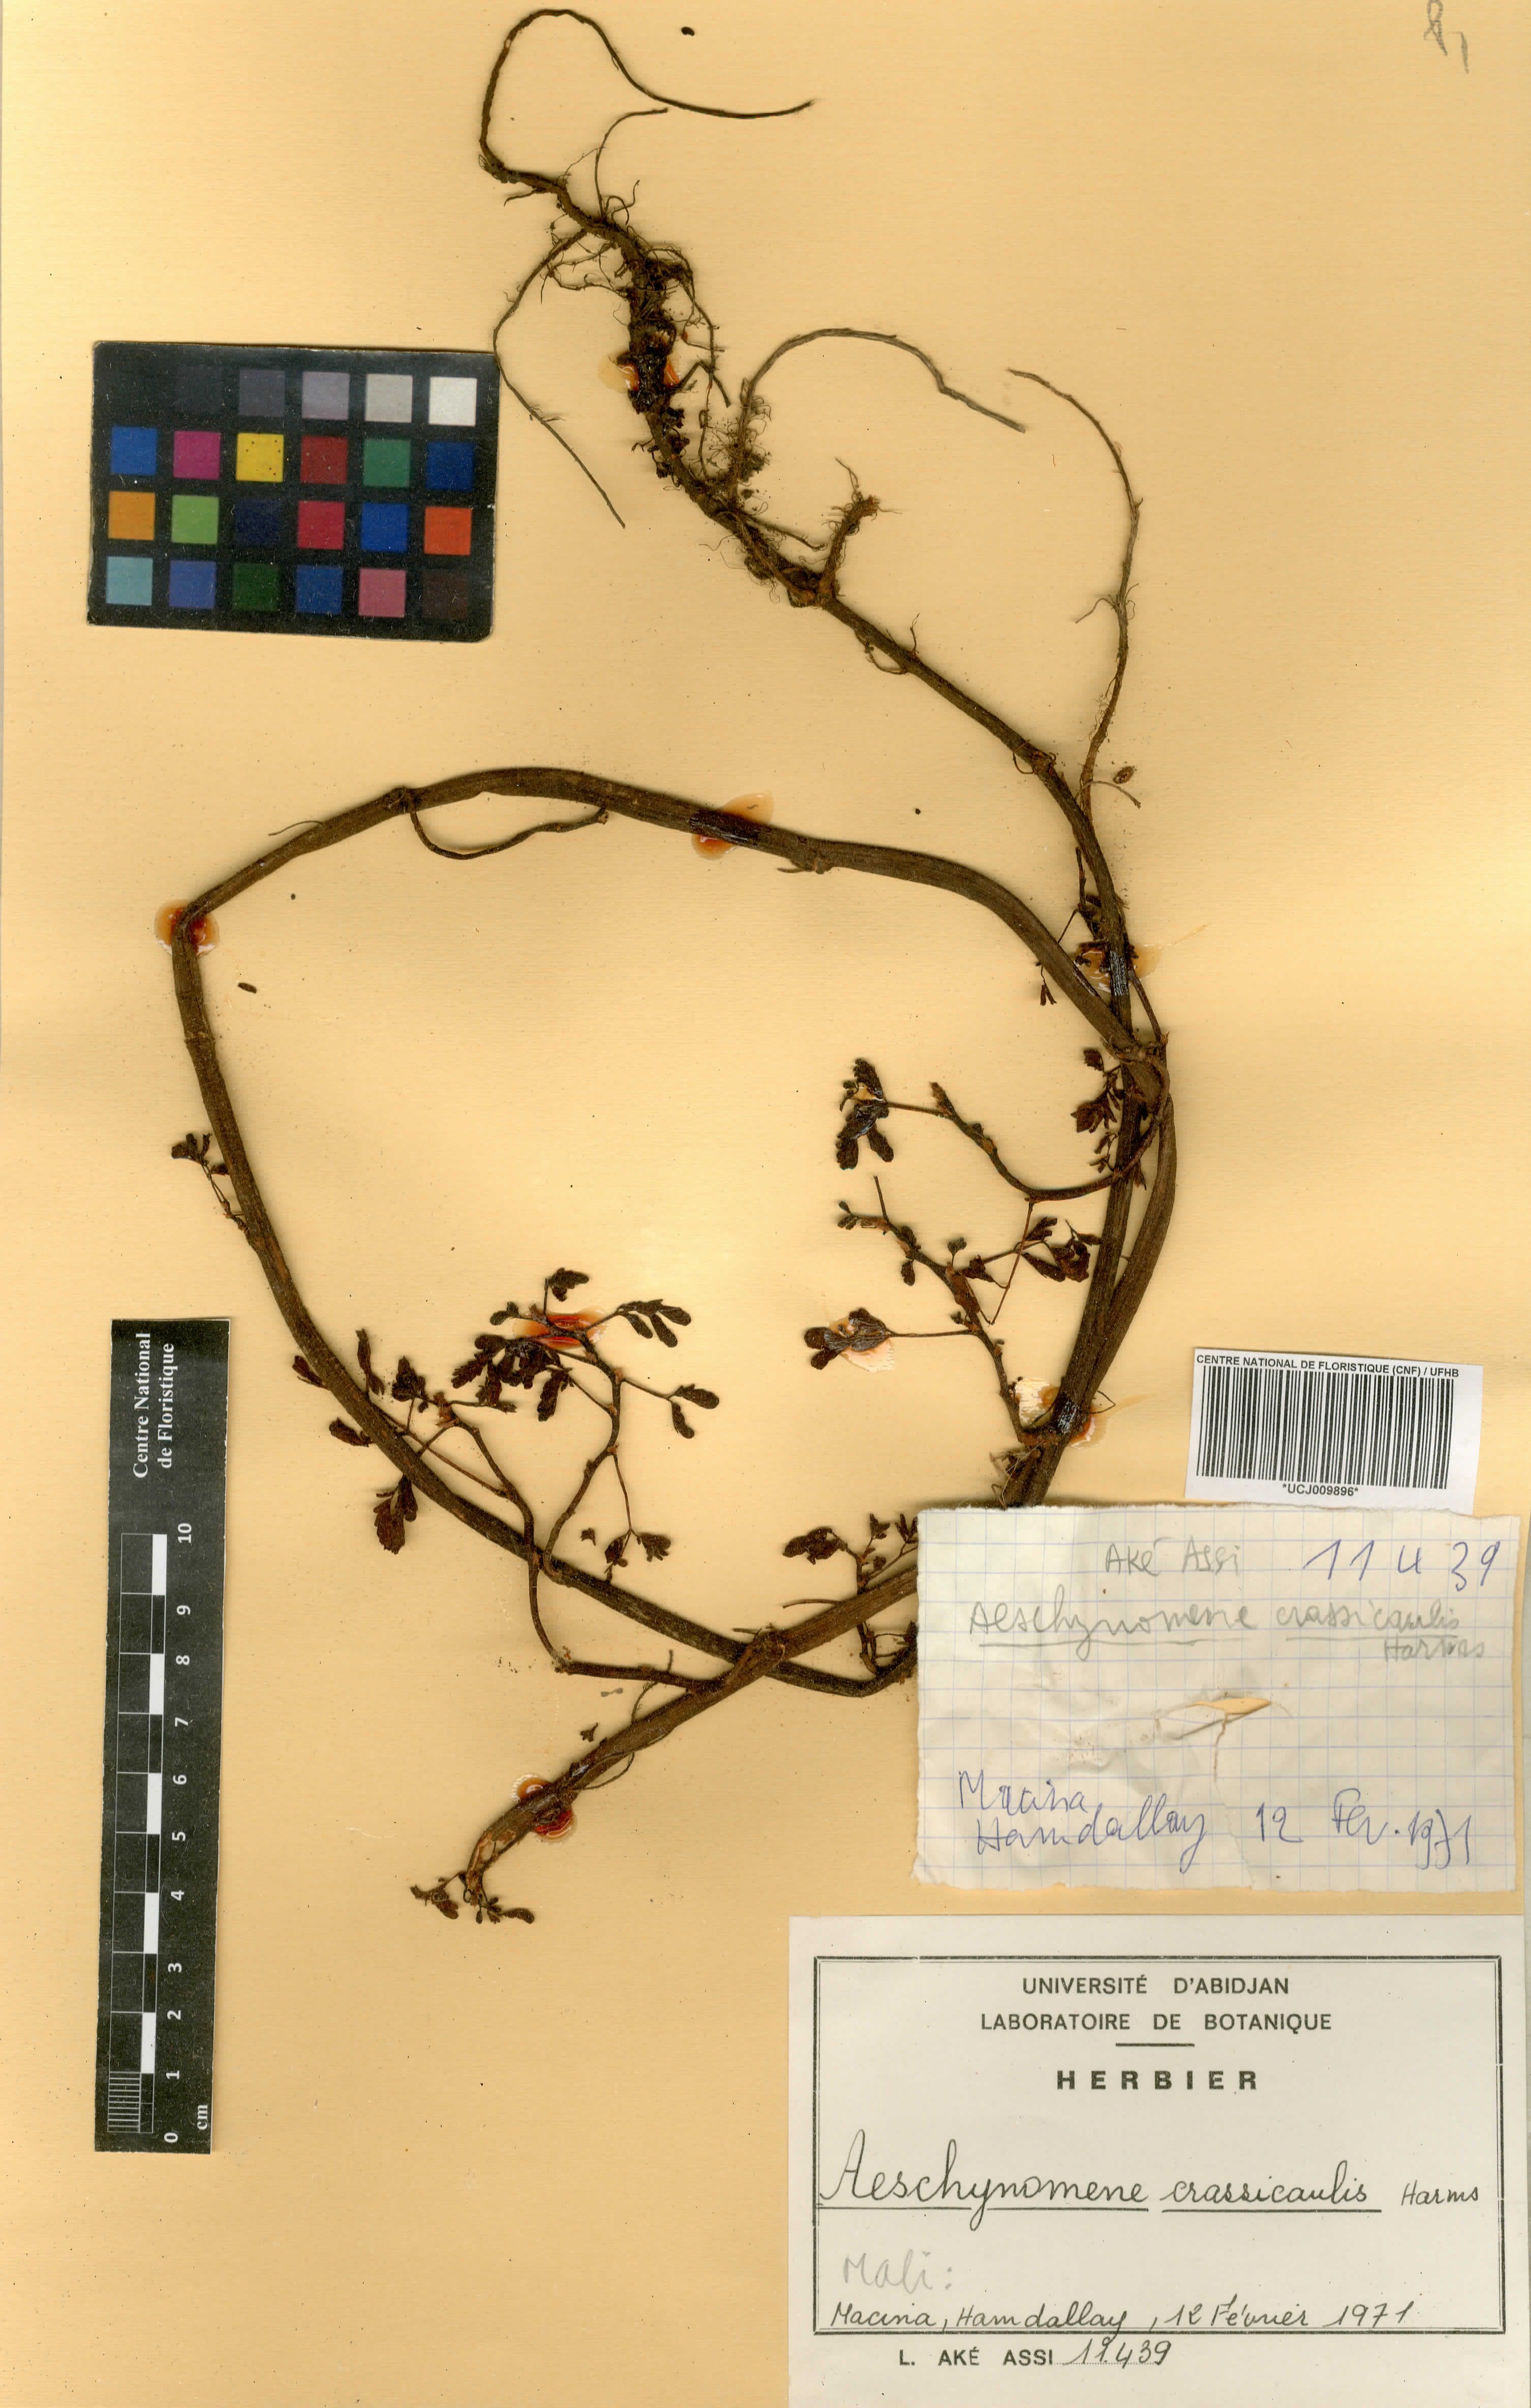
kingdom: Plantae
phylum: Tracheophyta
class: Magnoliopsida
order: Fabales
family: Fabaceae
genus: Aeschynomene
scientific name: Aeschynomene crassicaulis
